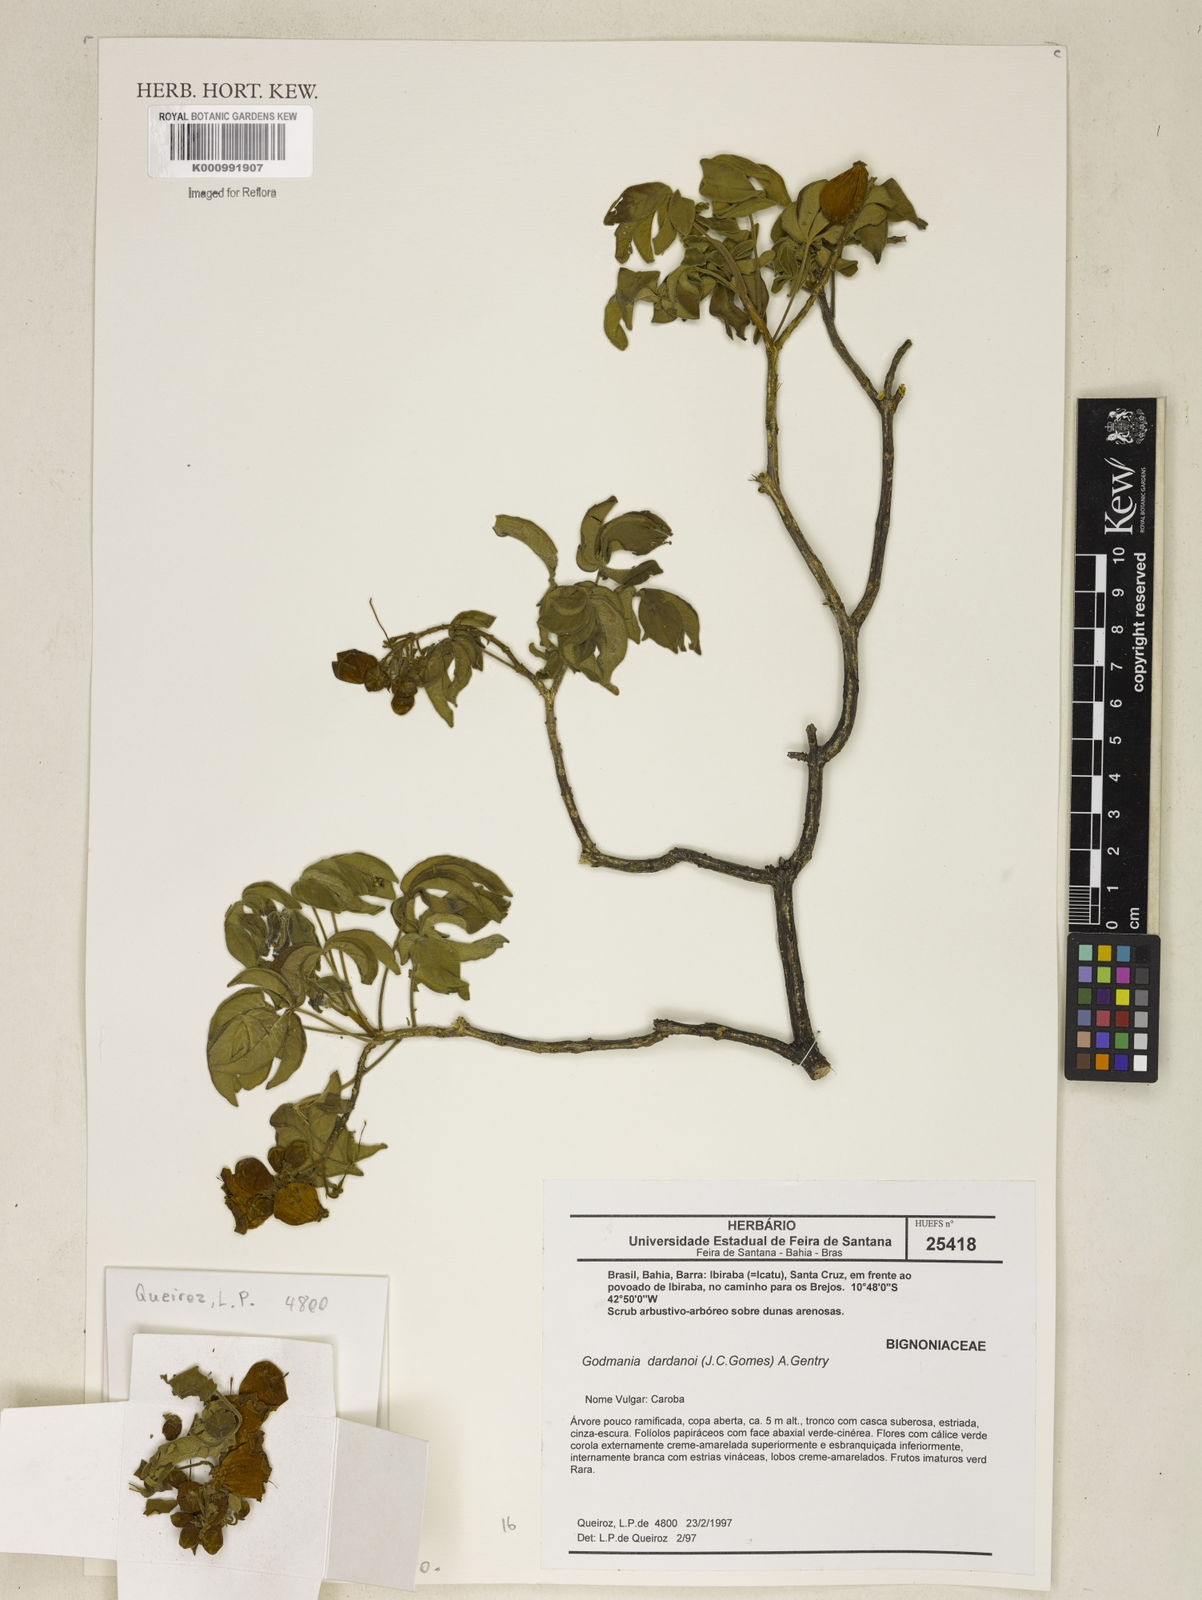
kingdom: Plantae
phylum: Tracheophyta
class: Magnoliopsida
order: Lamiales
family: Bignoniaceae
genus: Godmania
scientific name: Godmania dardanoi
